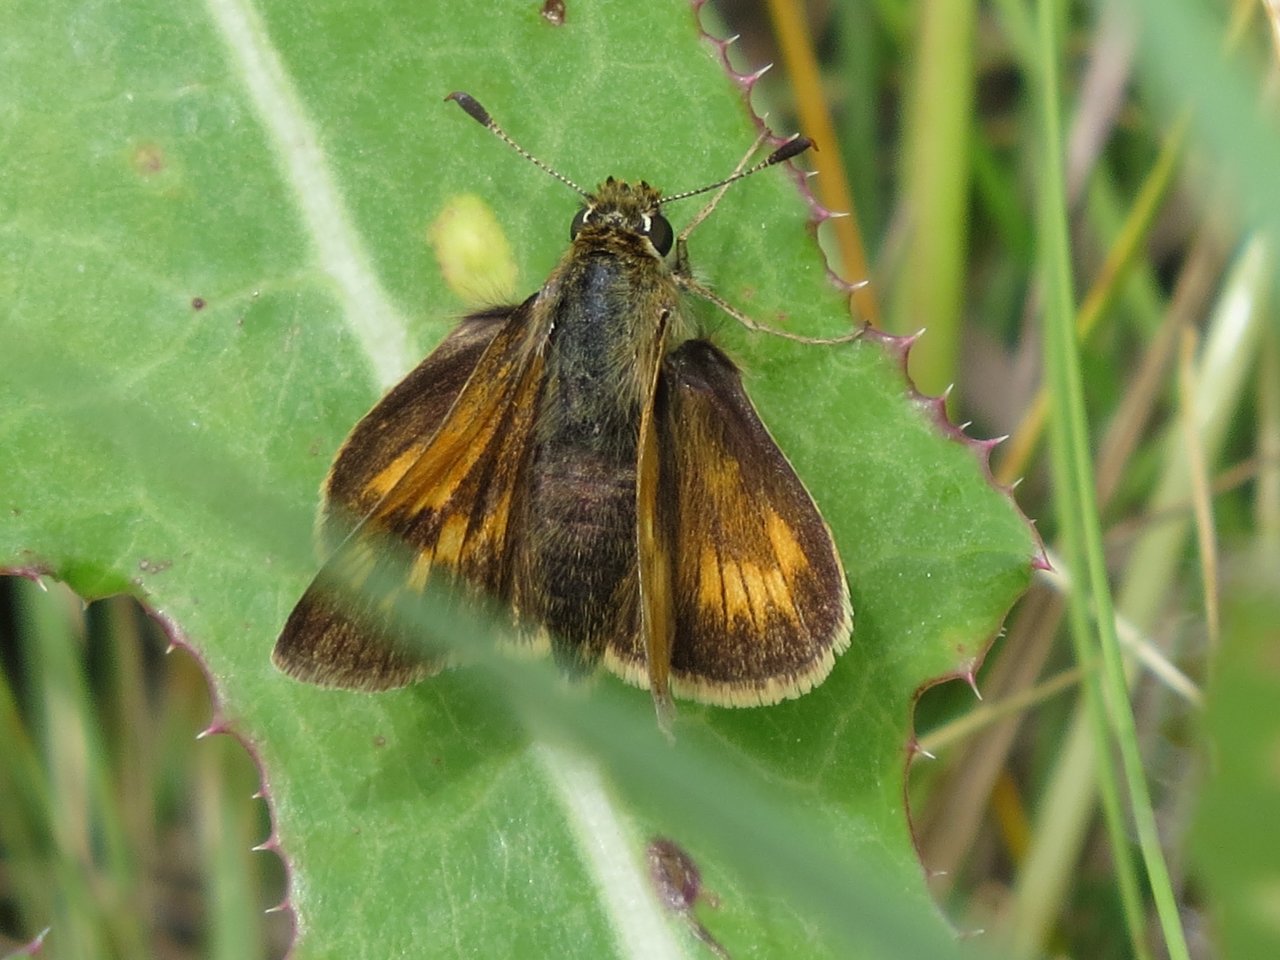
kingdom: Animalia
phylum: Arthropoda
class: Insecta
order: Lepidoptera
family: Hesperiidae
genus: Lon
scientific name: Lon hobomok
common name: Hobomok Skipper
